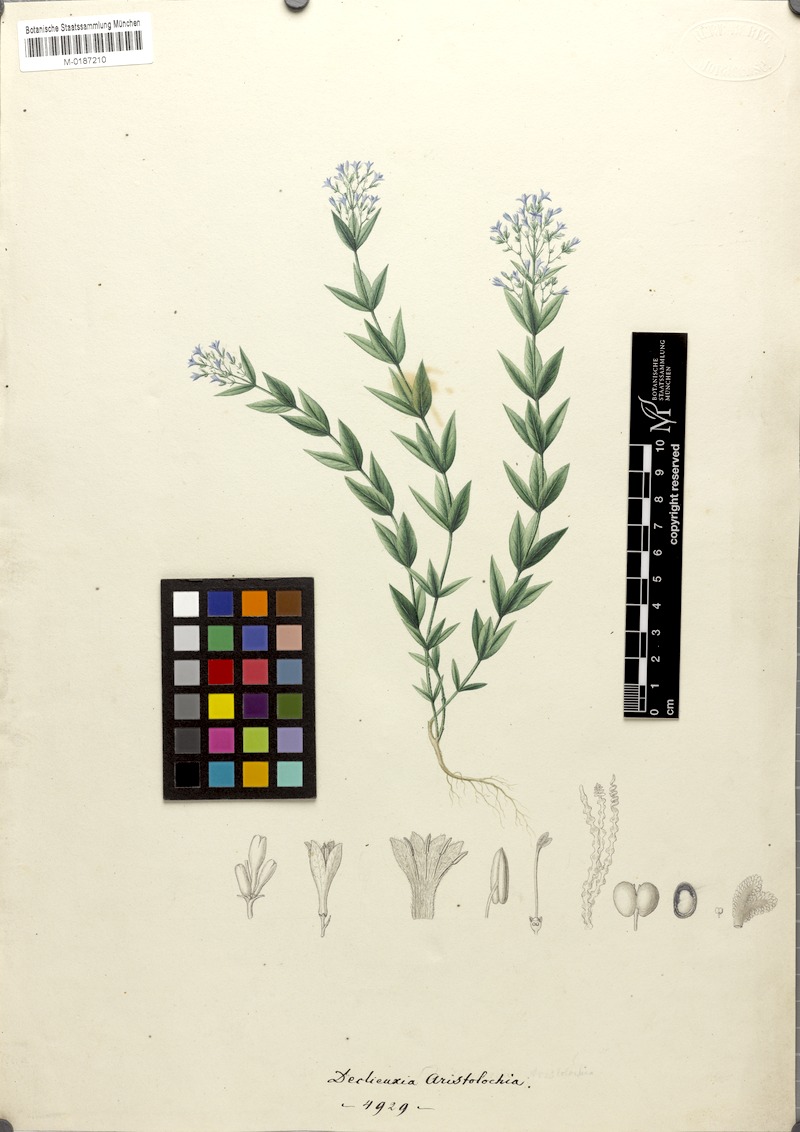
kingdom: Plantae
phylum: Tracheophyta
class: Magnoliopsida
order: Gentianales
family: Rubiaceae
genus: Declieuxia
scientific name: Declieuxia cordigera
